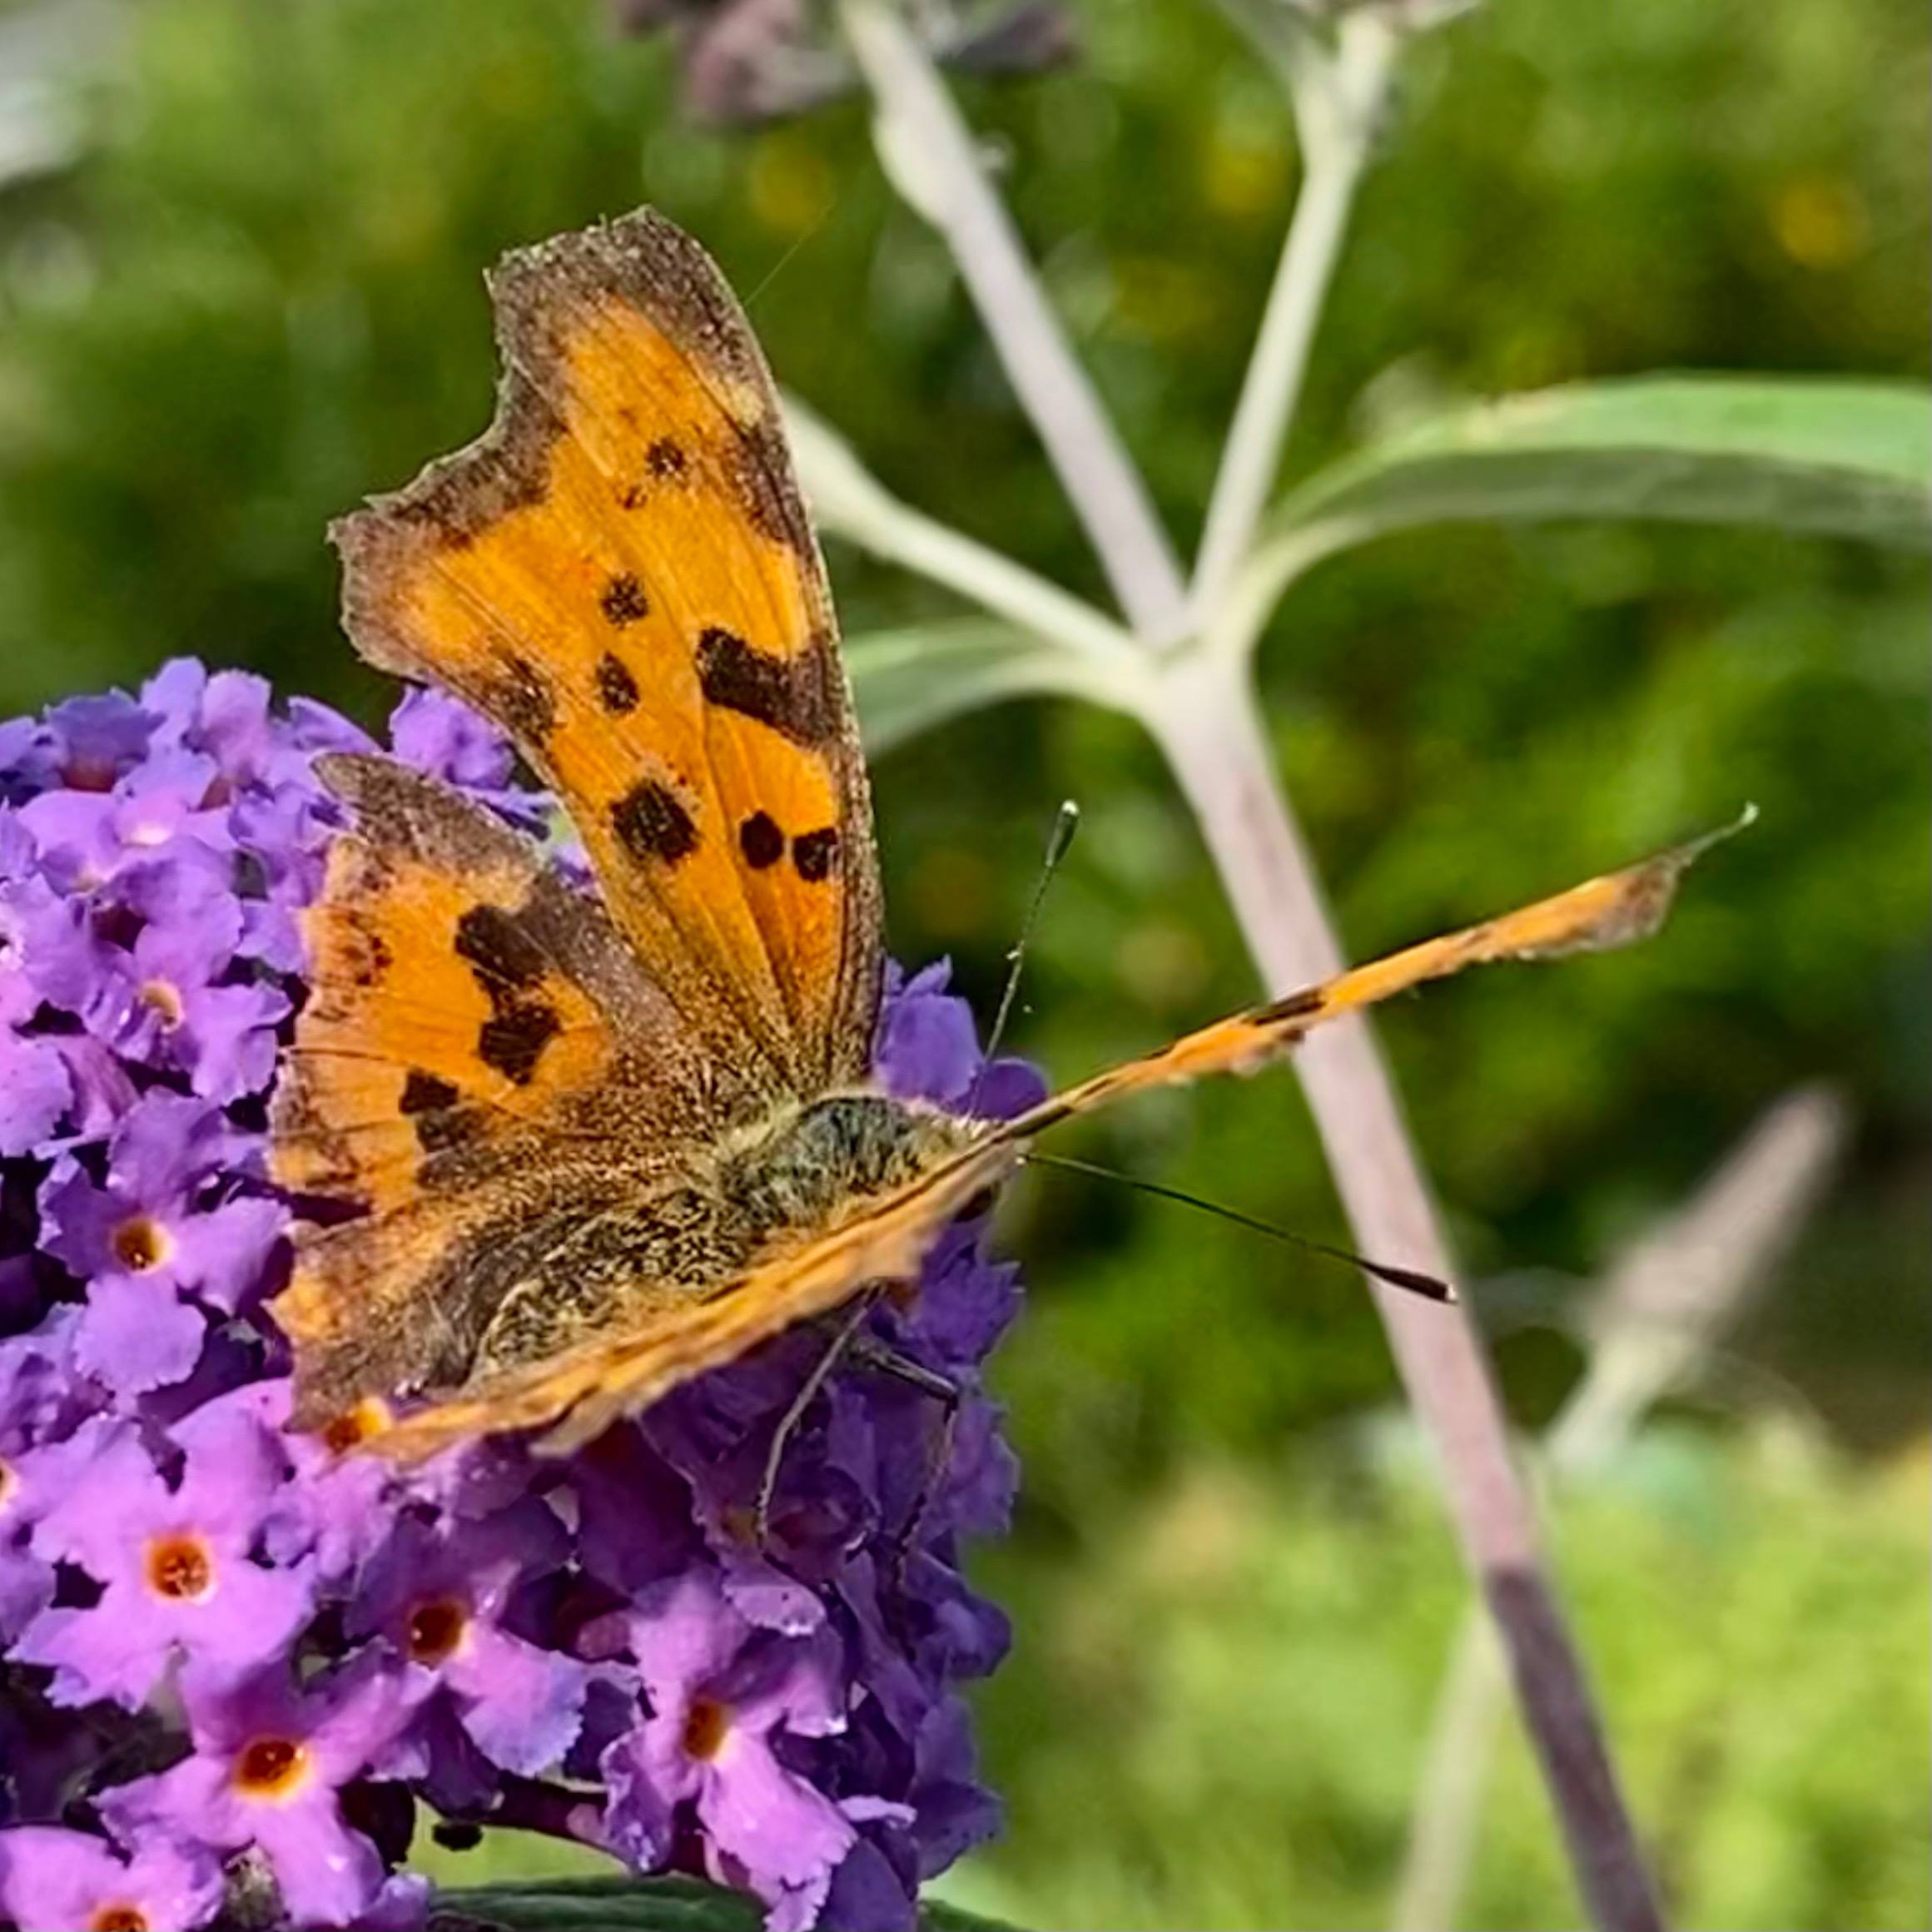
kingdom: Animalia
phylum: Arthropoda
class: Insecta
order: Lepidoptera
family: Nymphalidae
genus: Polygonia
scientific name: Polygonia c-album
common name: Det hvide C
